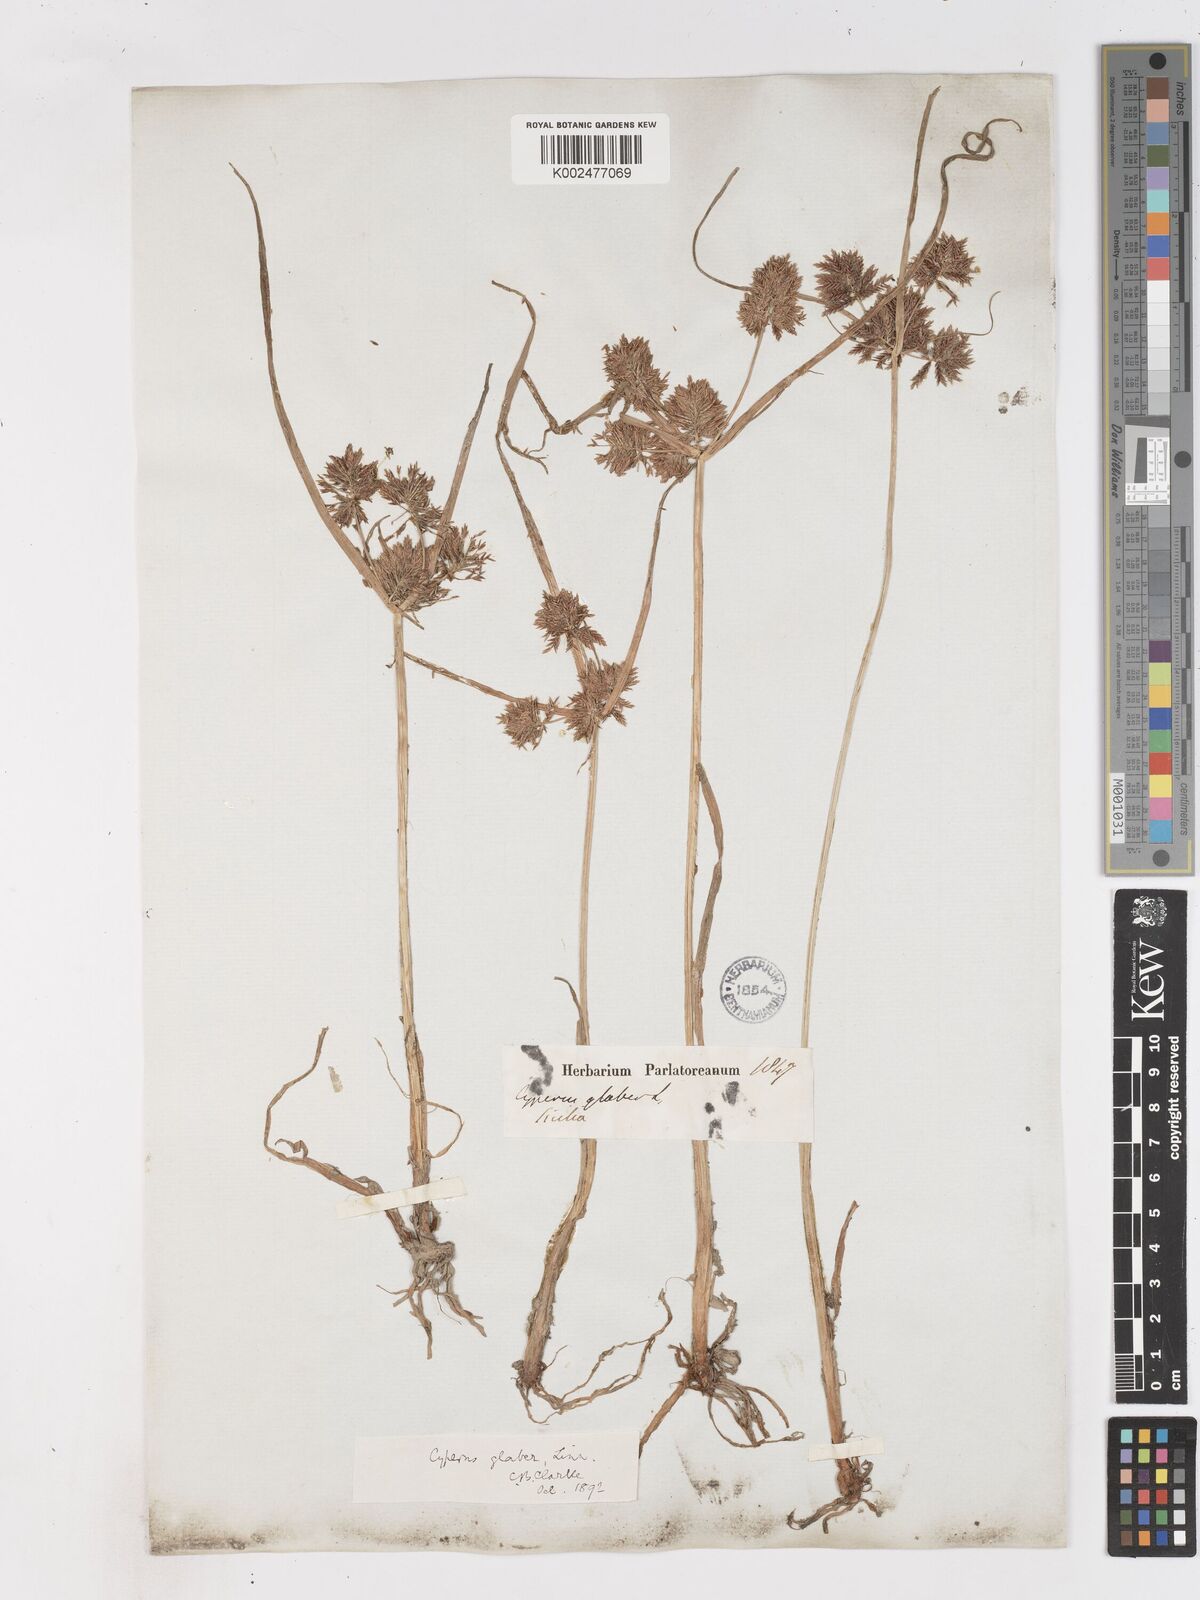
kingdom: Plantae
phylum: Tracheophyta
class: Liliopsida
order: Poales
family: Cyperaceae
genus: Cyperus
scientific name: Cyperus glaber
